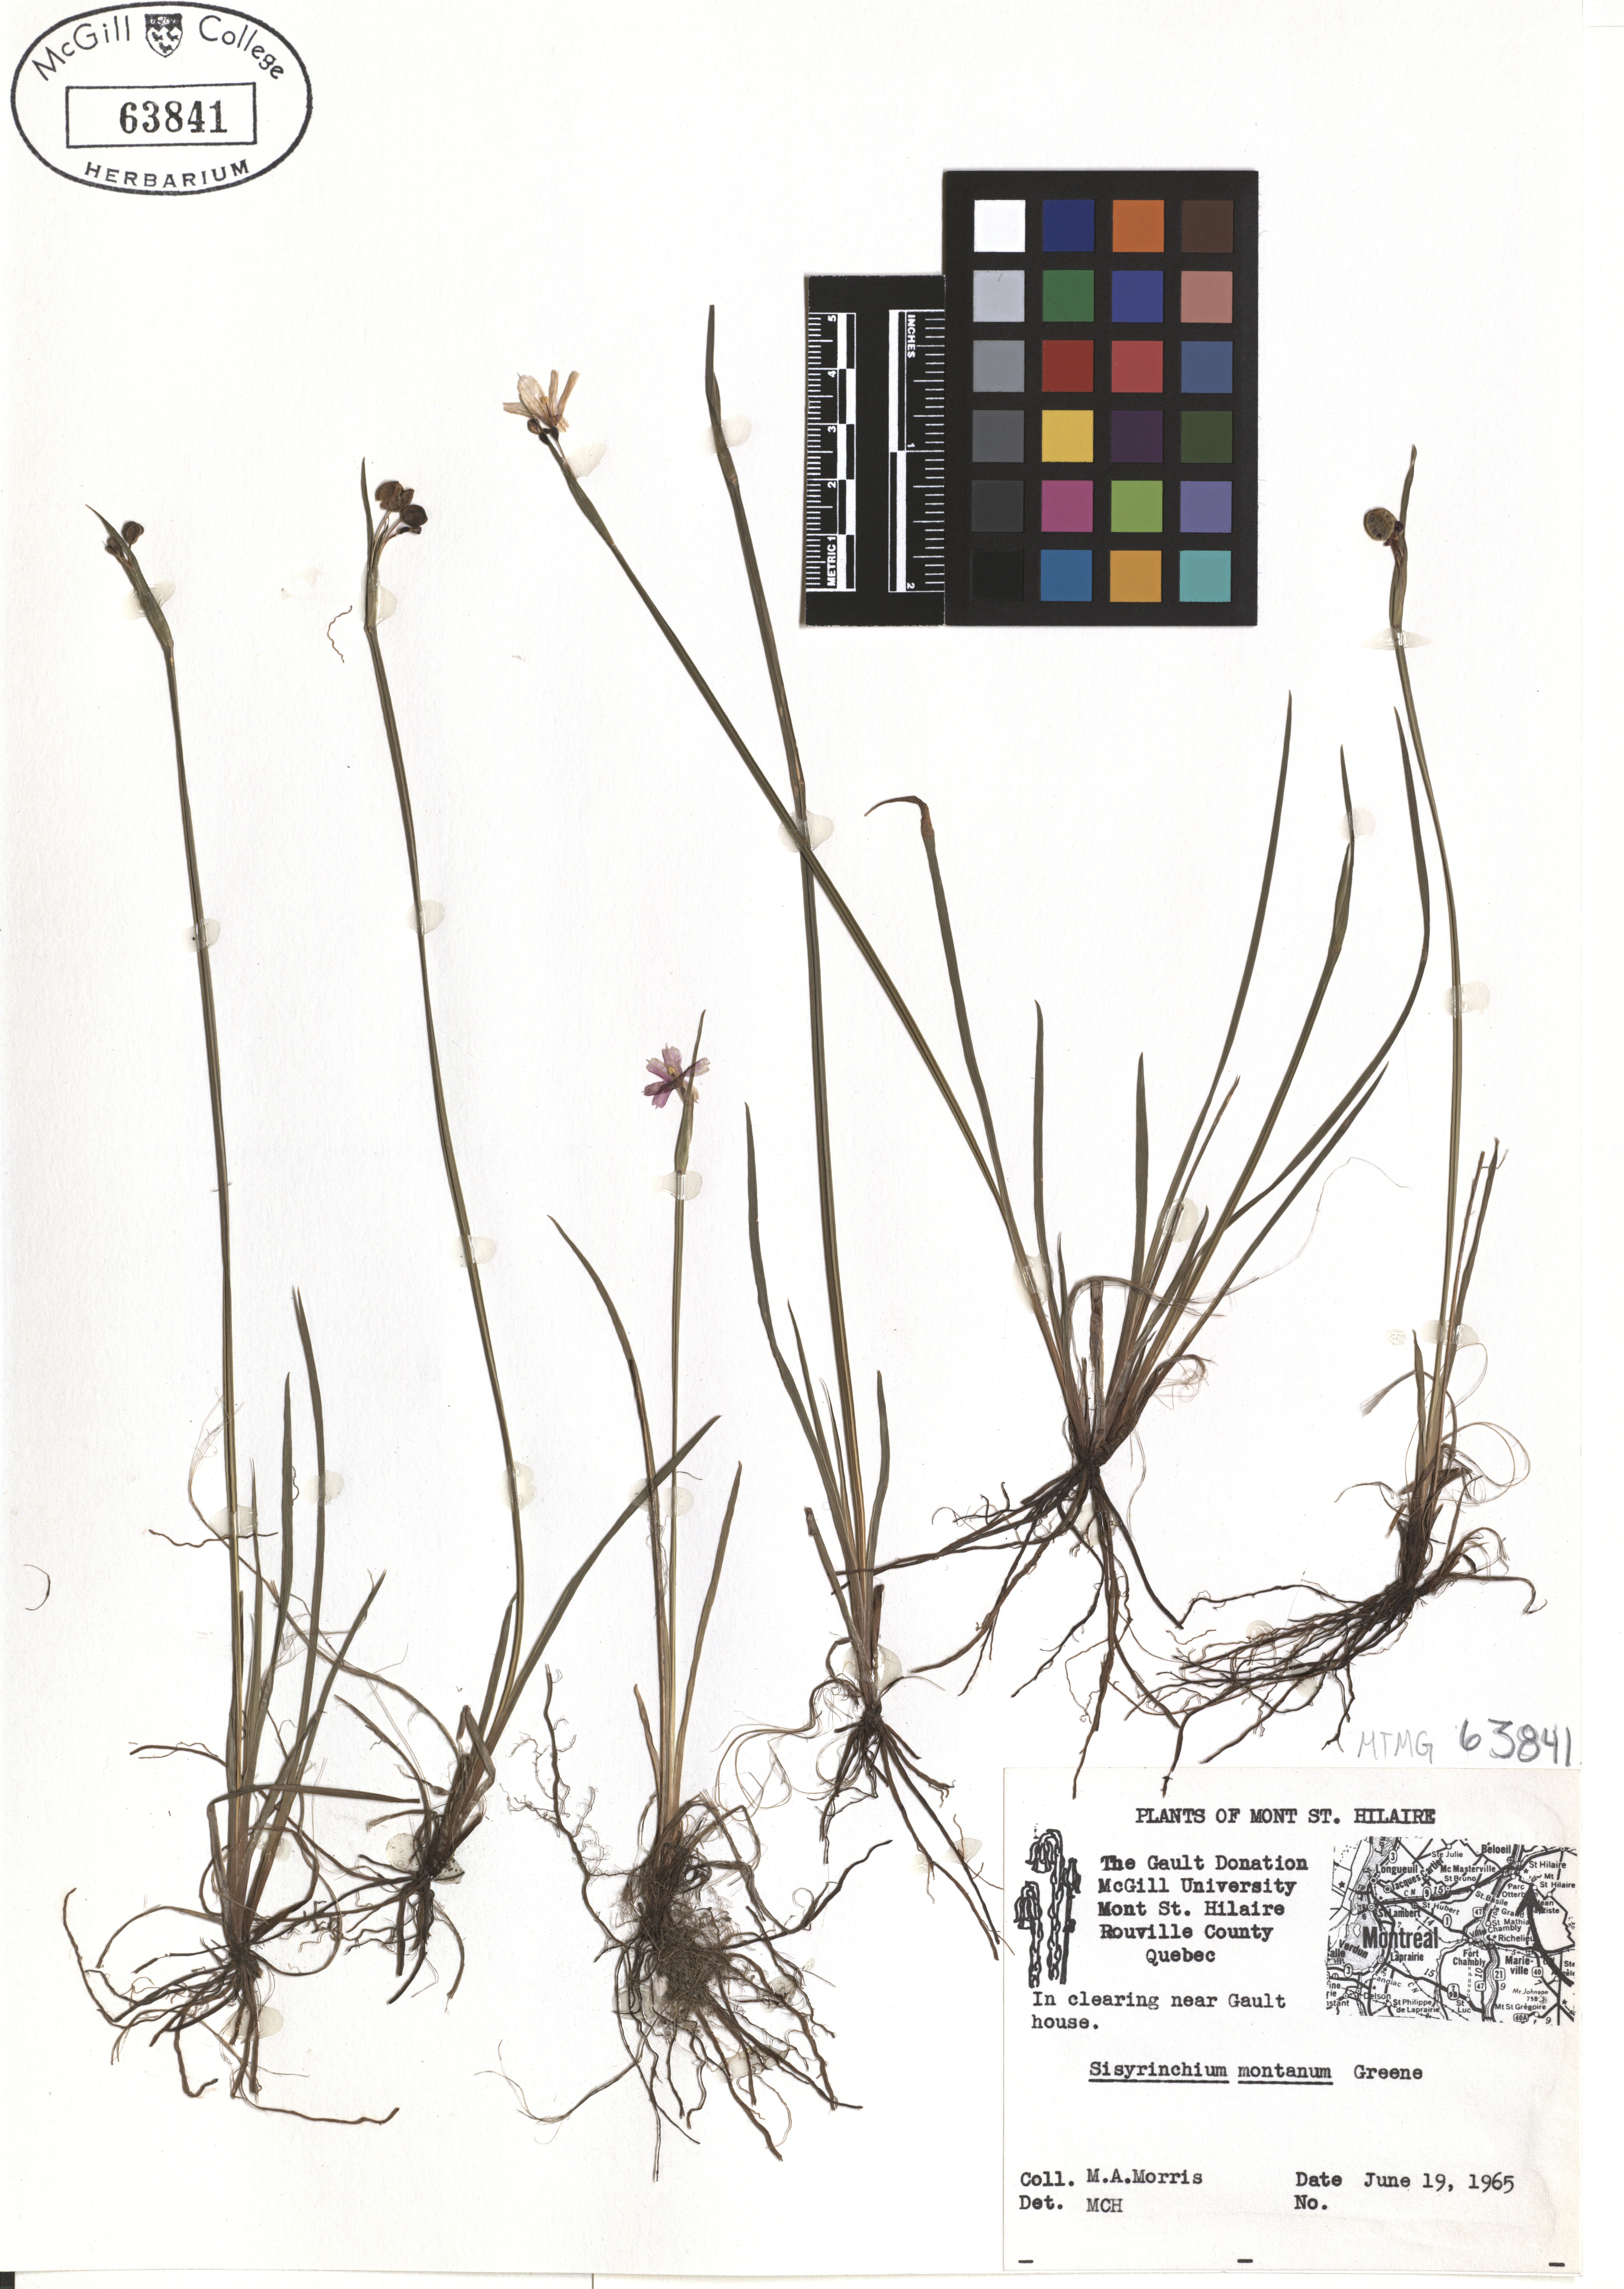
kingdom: Plantae
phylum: Tracheophyta
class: Liliopsida
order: Asparagales
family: Iridaceae
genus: Sisyrinchium
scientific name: Sisyrinchium montanum
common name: American blue-eyed-grass
